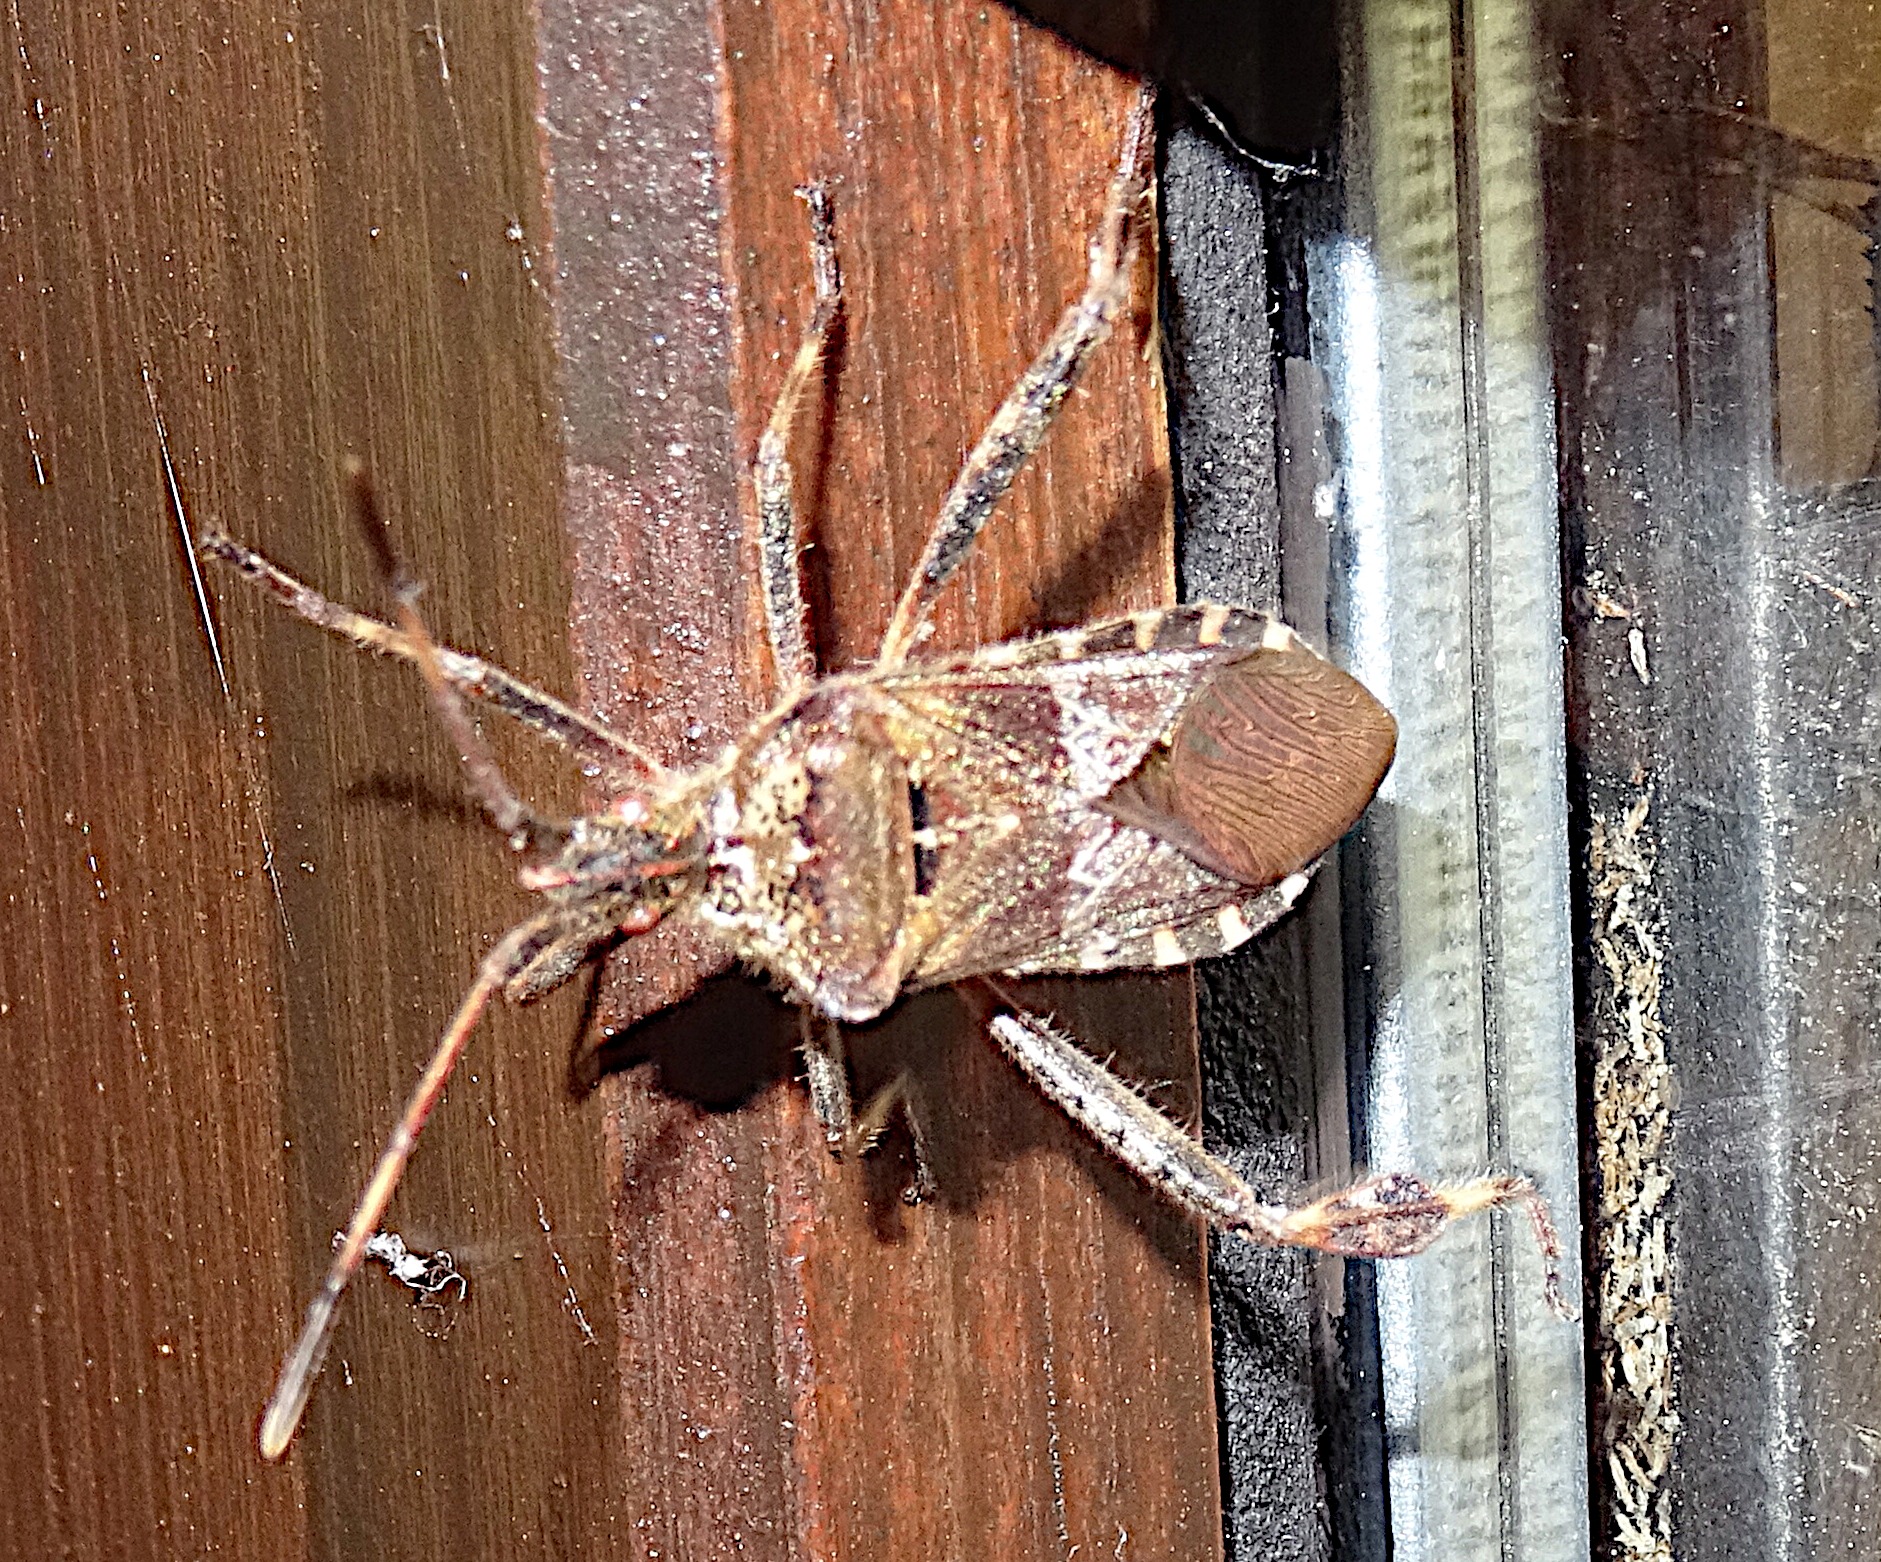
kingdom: Animalia
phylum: Arthropoda
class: Insecta
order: Hemiptera
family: Coreidae
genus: Leptoglossus
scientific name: Leptoglossus occidentalis
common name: Amerikansk fyrretæge
